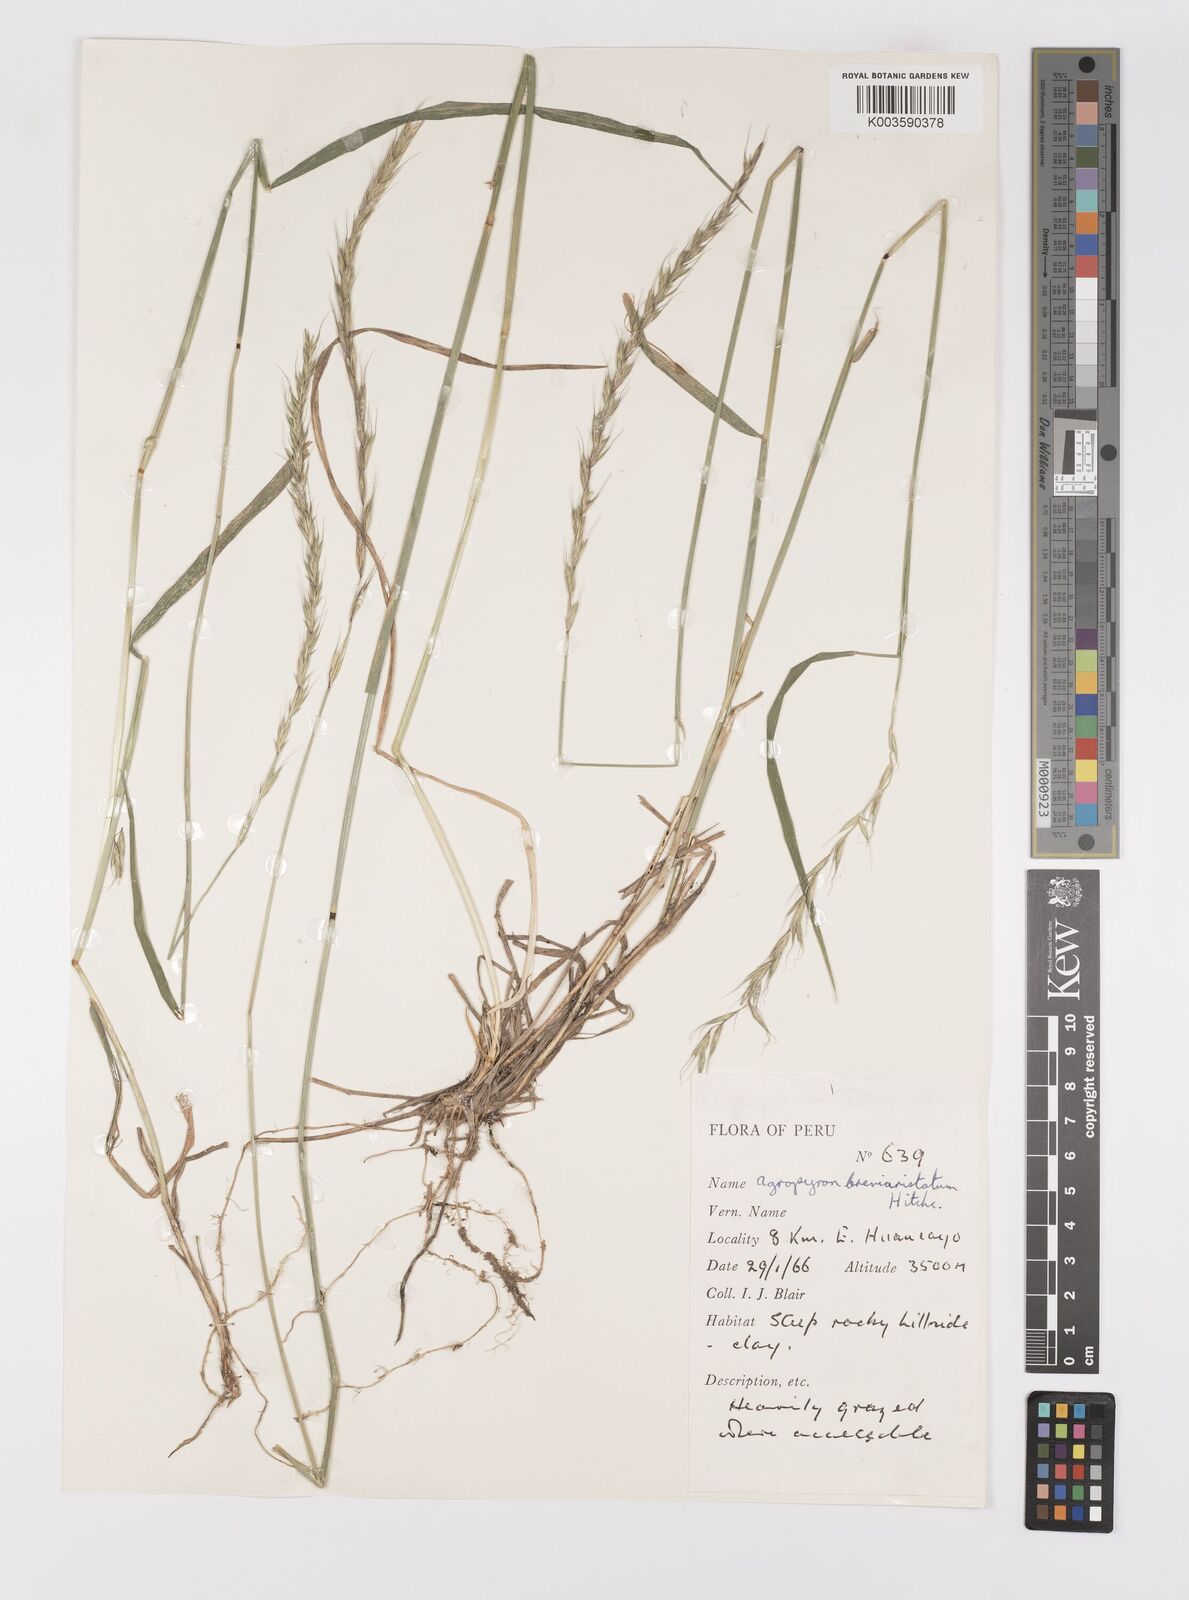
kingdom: Plantae
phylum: Tracheophyta
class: Liliopsida
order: Poales
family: Poaceae
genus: Elymus
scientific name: Elymus angulatus
